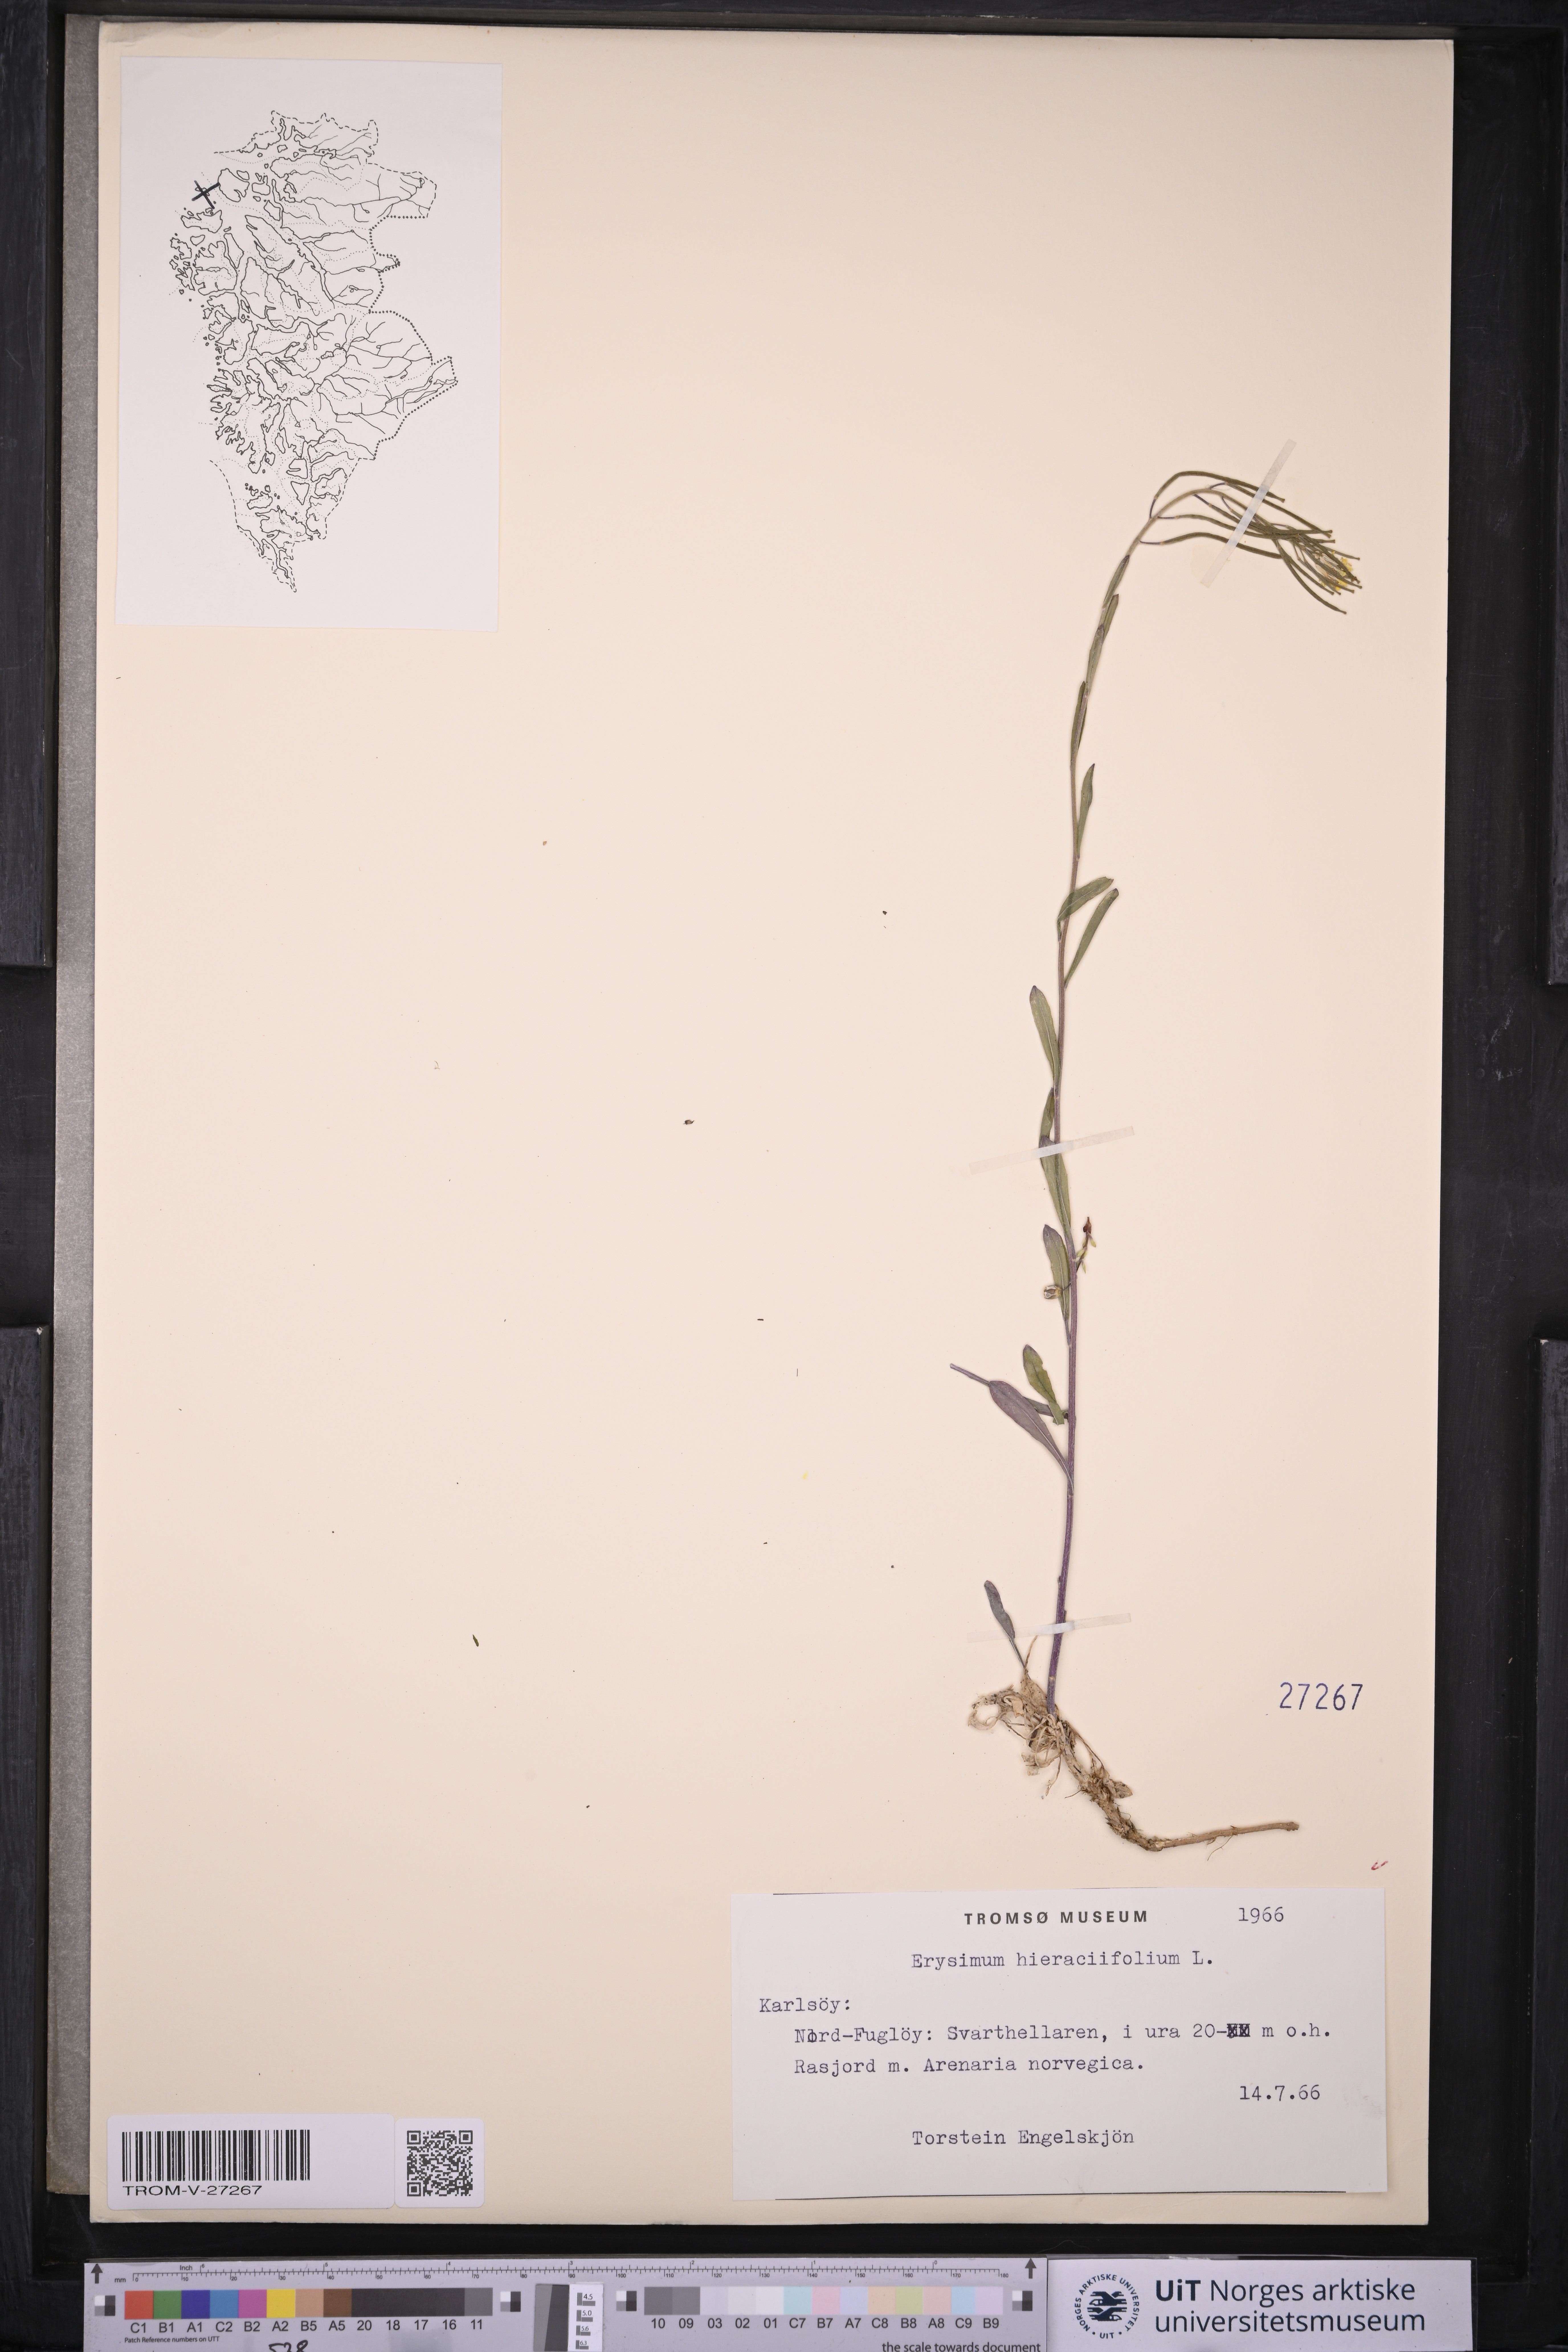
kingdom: Plantae
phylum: Tracheophyta
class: Magnoliopsida
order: Brassicales
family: Brassicaceae
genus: Erysimum
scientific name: Erysimum virgatum
